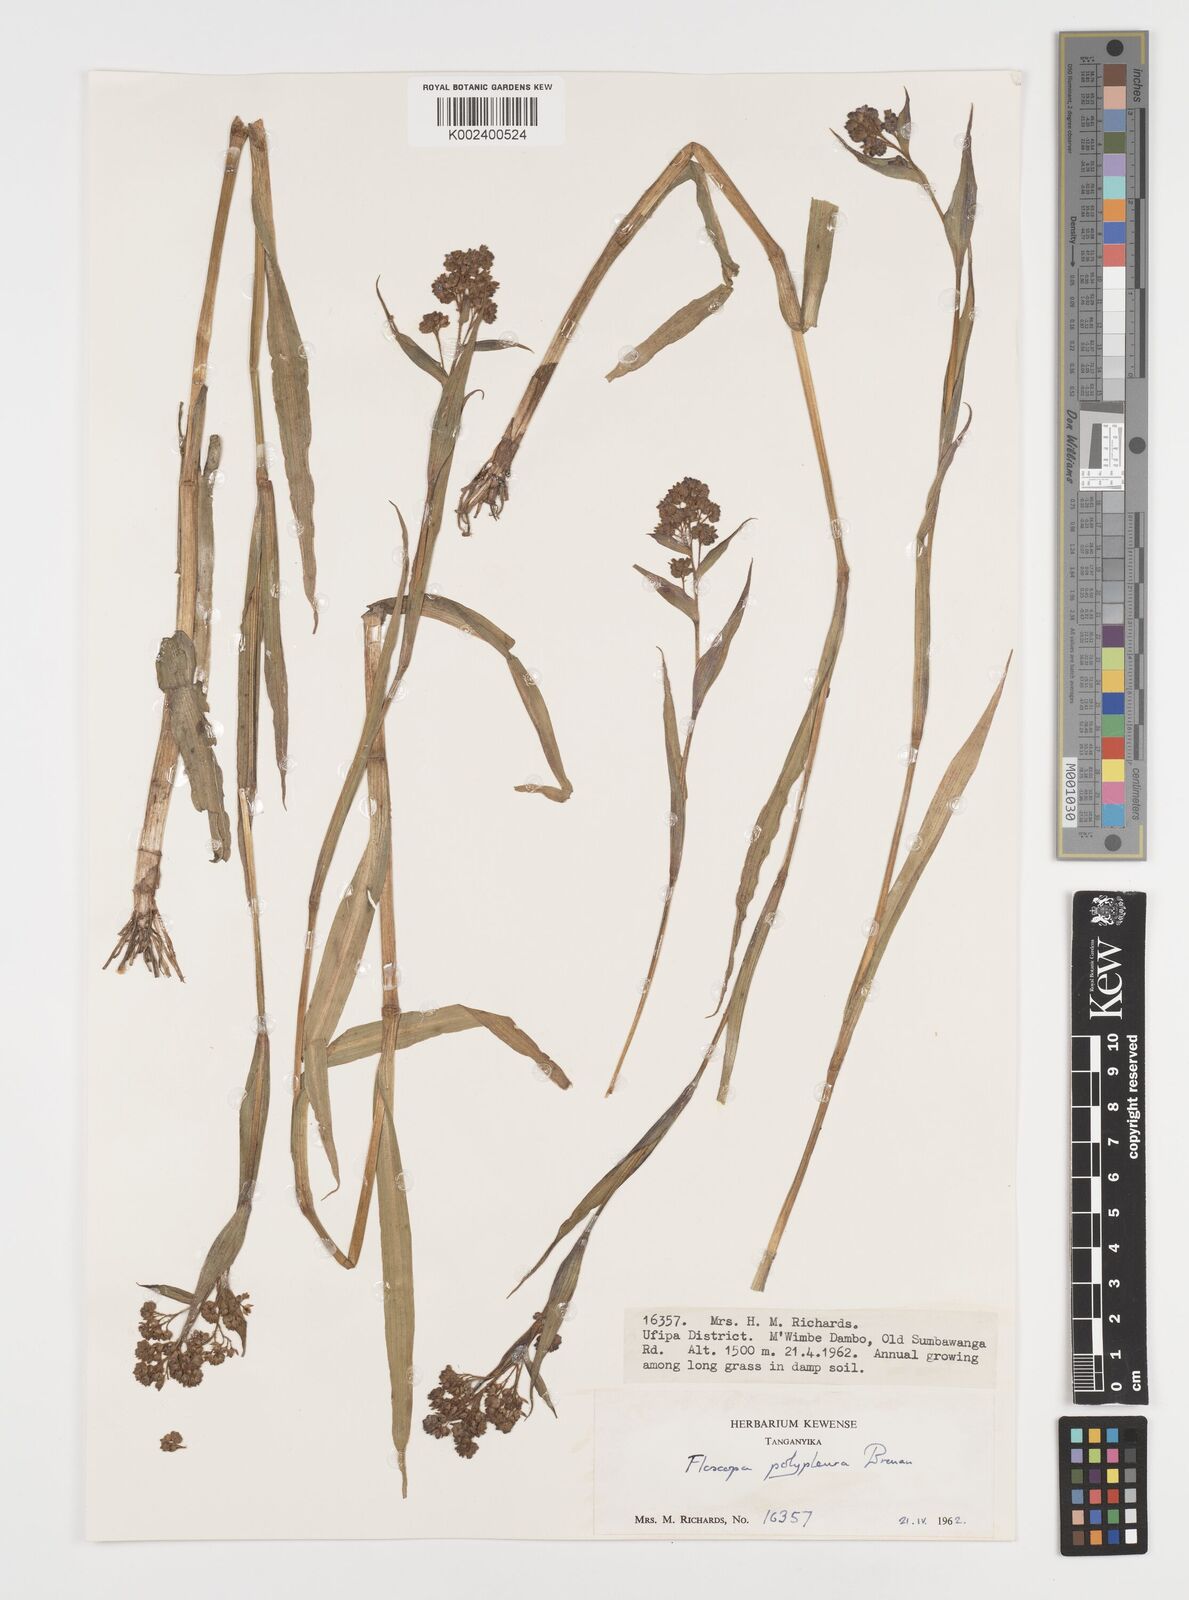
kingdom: Plantae
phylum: Tracheophyta
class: Liliopsida
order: Commelinales
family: Commelinaceae
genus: Floscopa
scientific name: Floscopa polypleura
